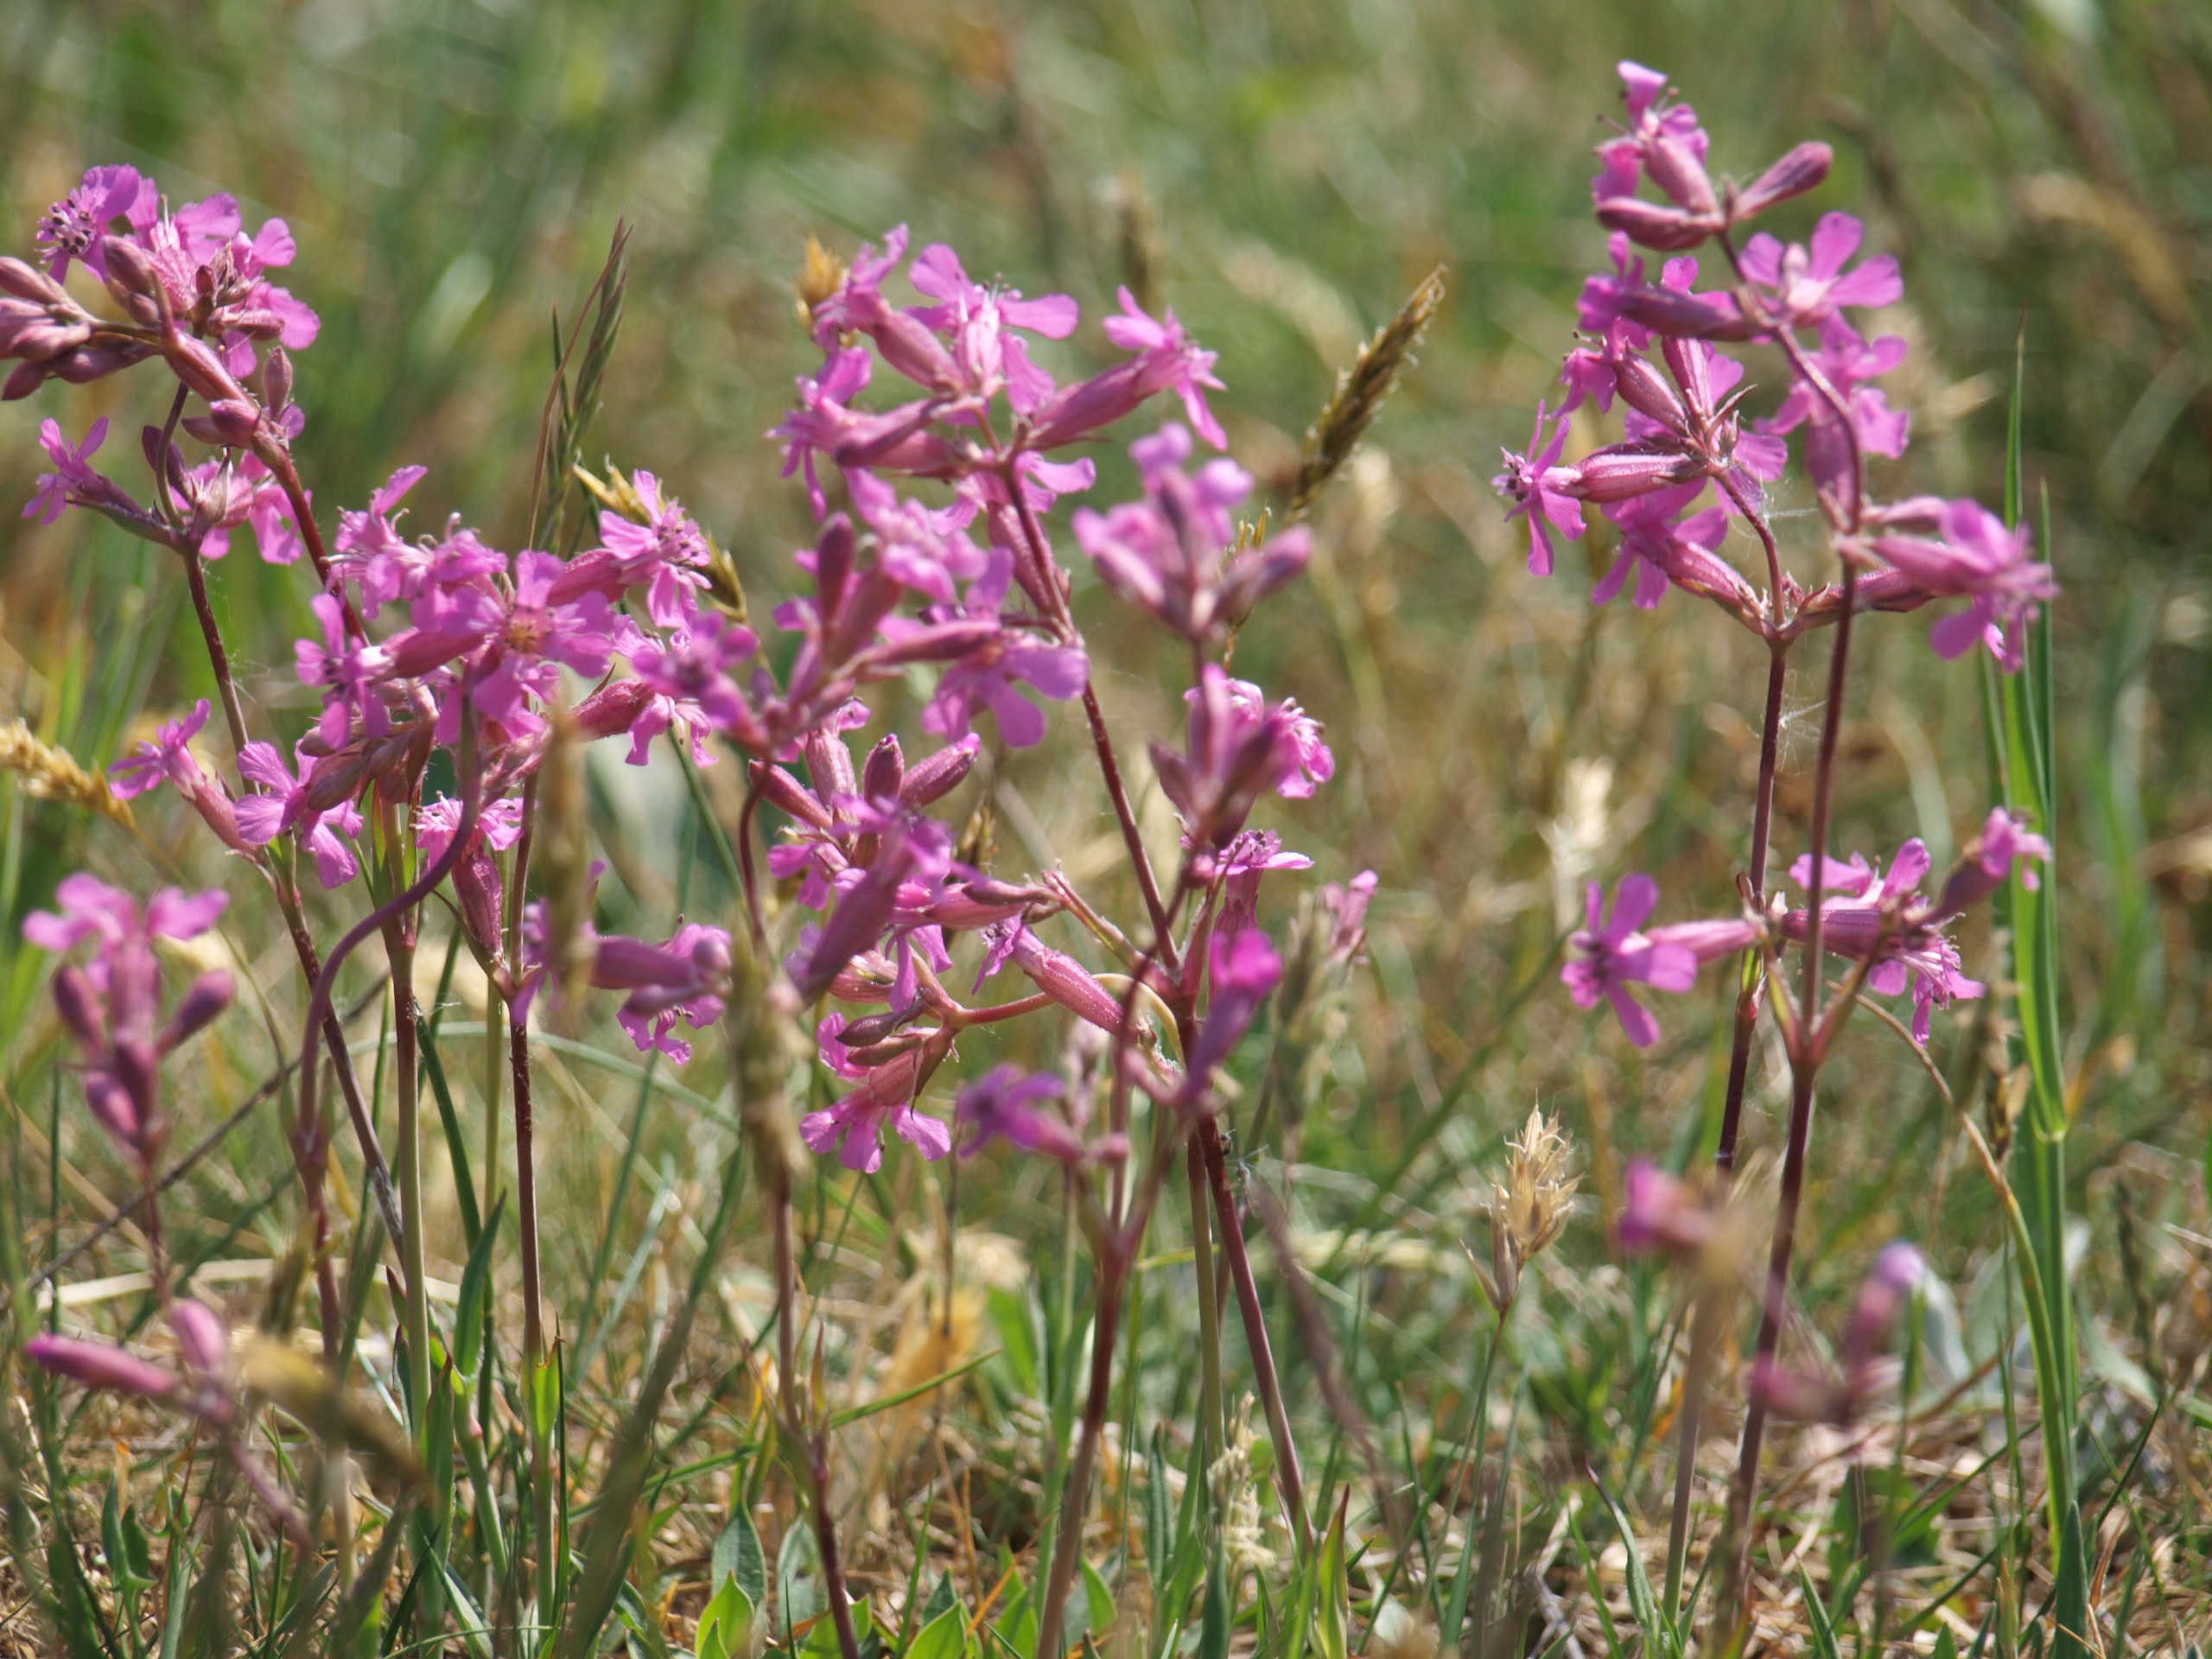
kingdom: Plantae
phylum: Tracheophyta
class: Magnoliopsida
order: Caryophyllales
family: Caryophyllaceae
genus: Viscaria
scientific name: Viscaria vulgaris
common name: Tjærenellike
